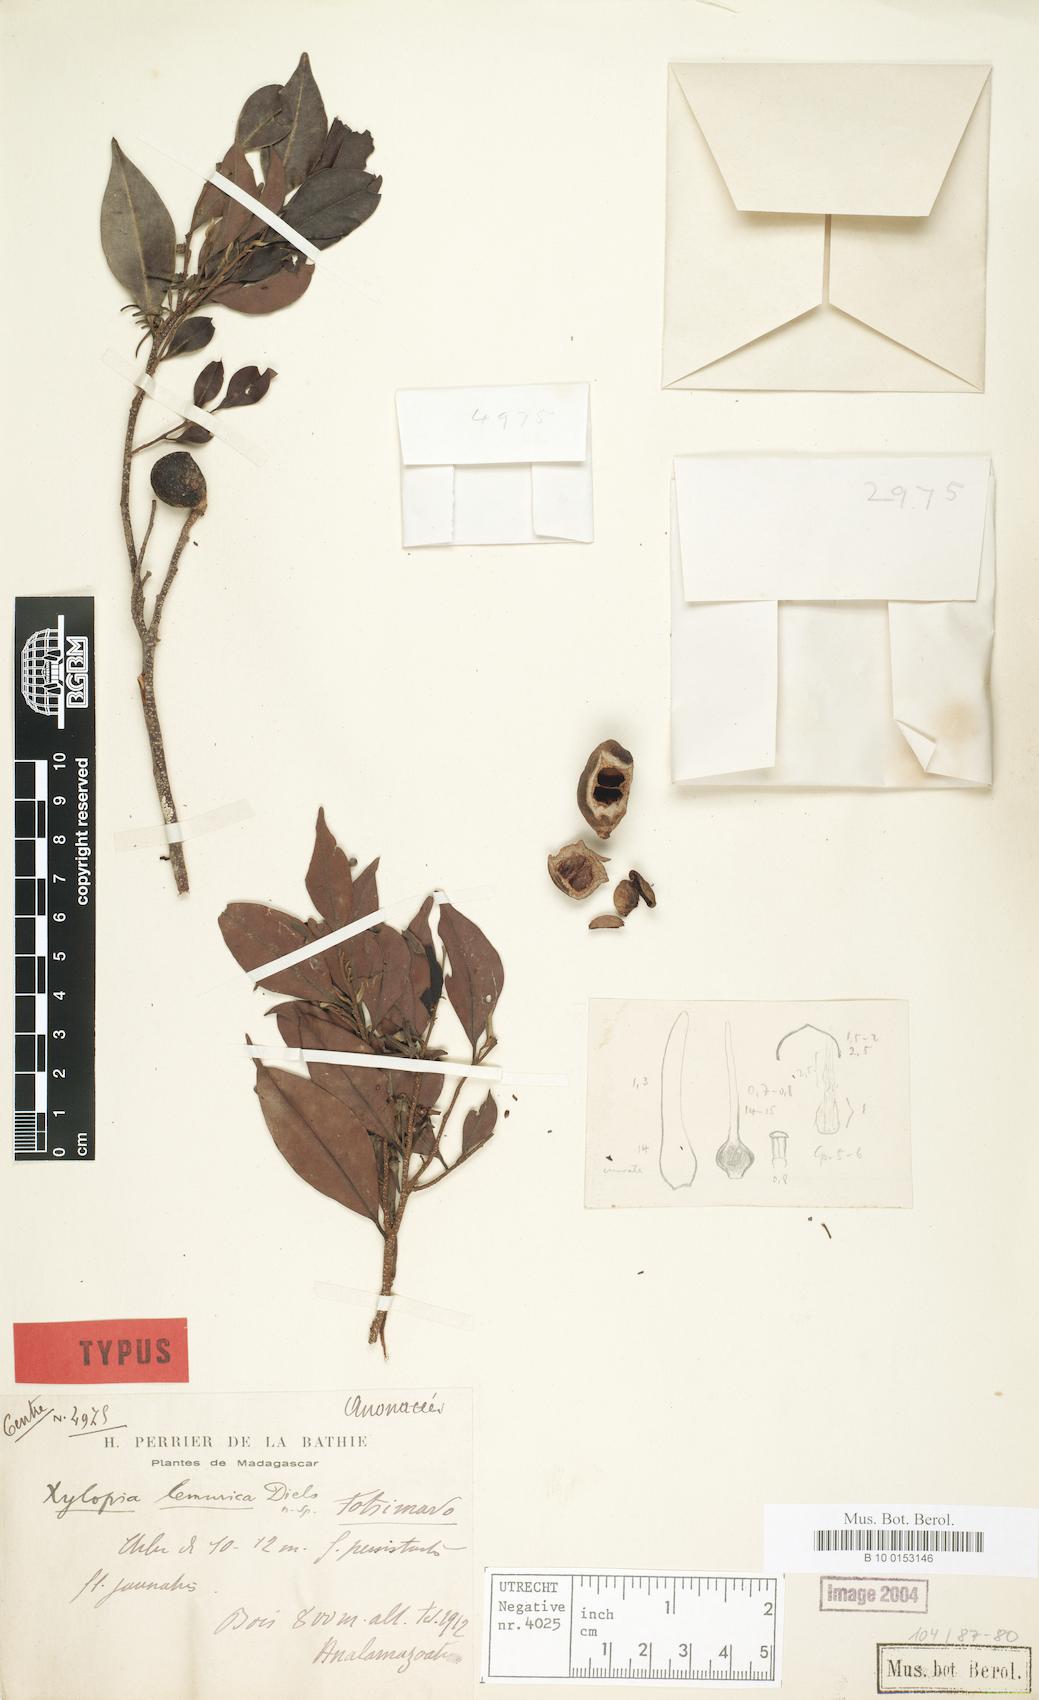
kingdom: Plantae
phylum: Tracheophyta
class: Magnoliopsida
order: Magnoliales
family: Annonaceae
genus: Xylopia
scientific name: Xylopia lemurica
